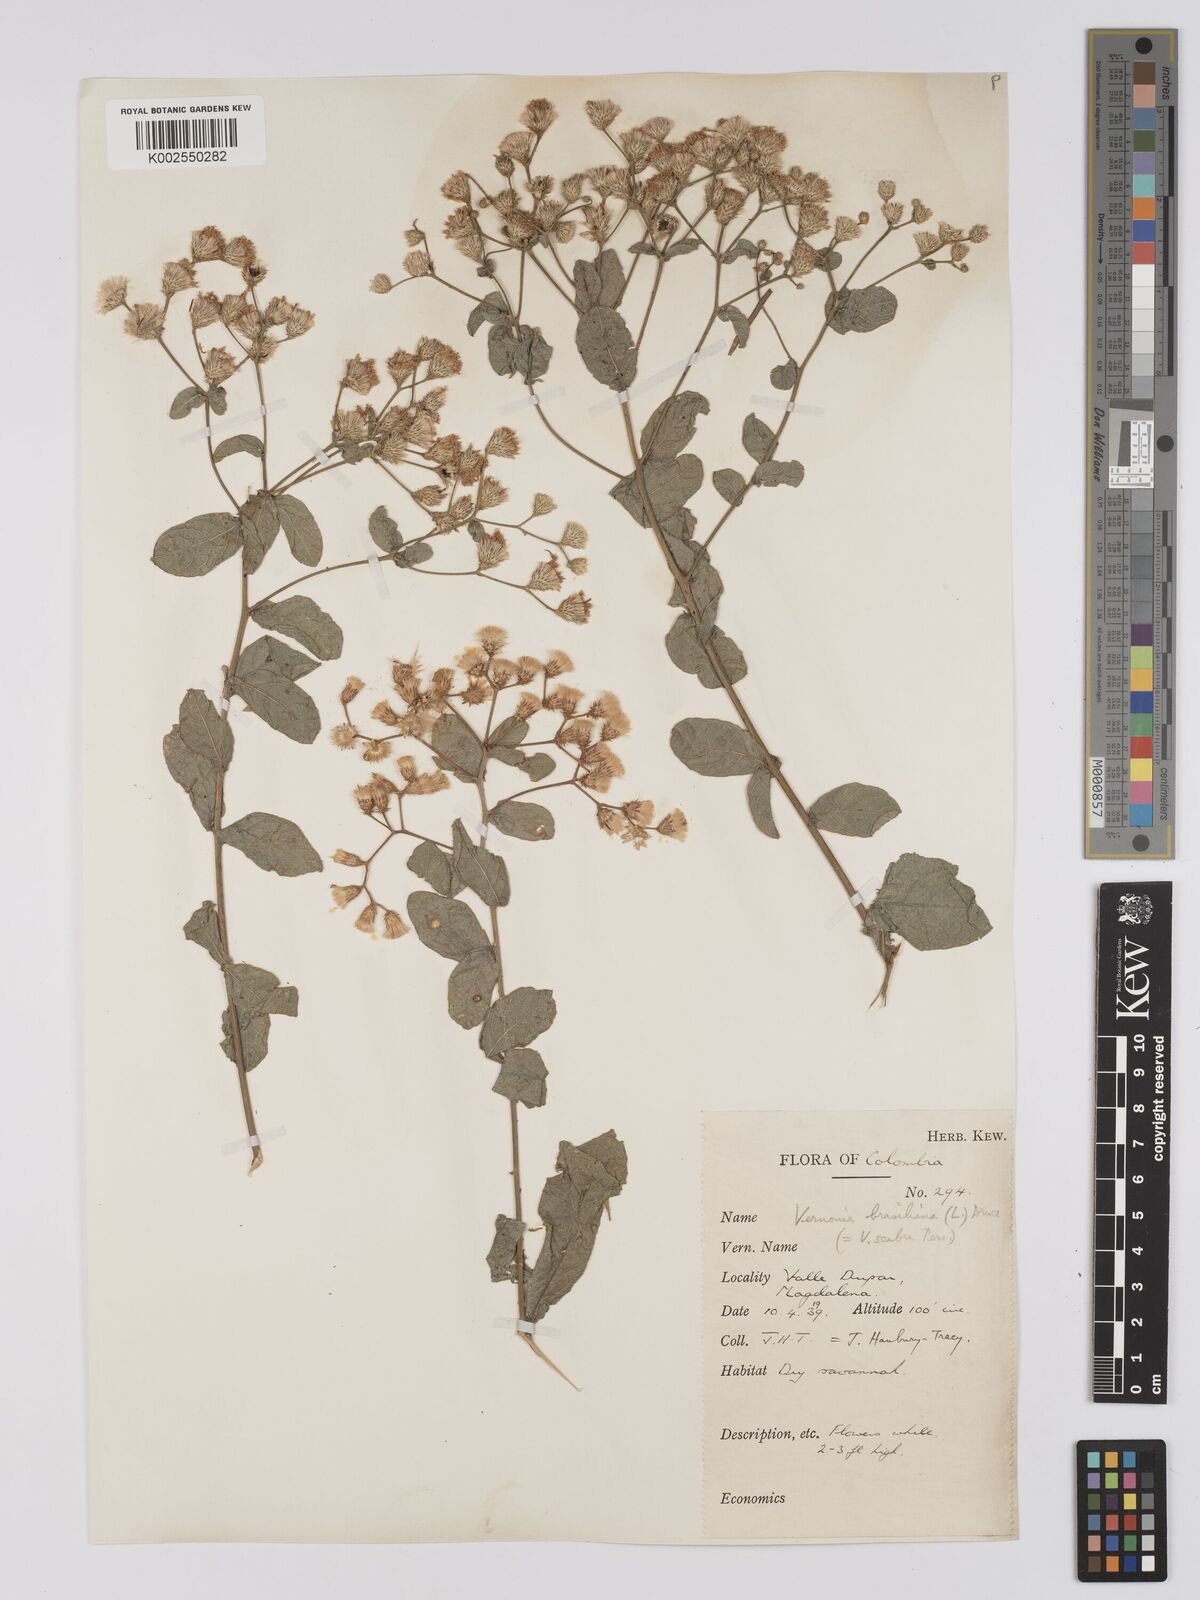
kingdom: Plantae
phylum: Tracheophyta
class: Magnoliopsida
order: Asterales
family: Asteraceae
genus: Vernonanthura
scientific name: Vernonanthura brasiliana
